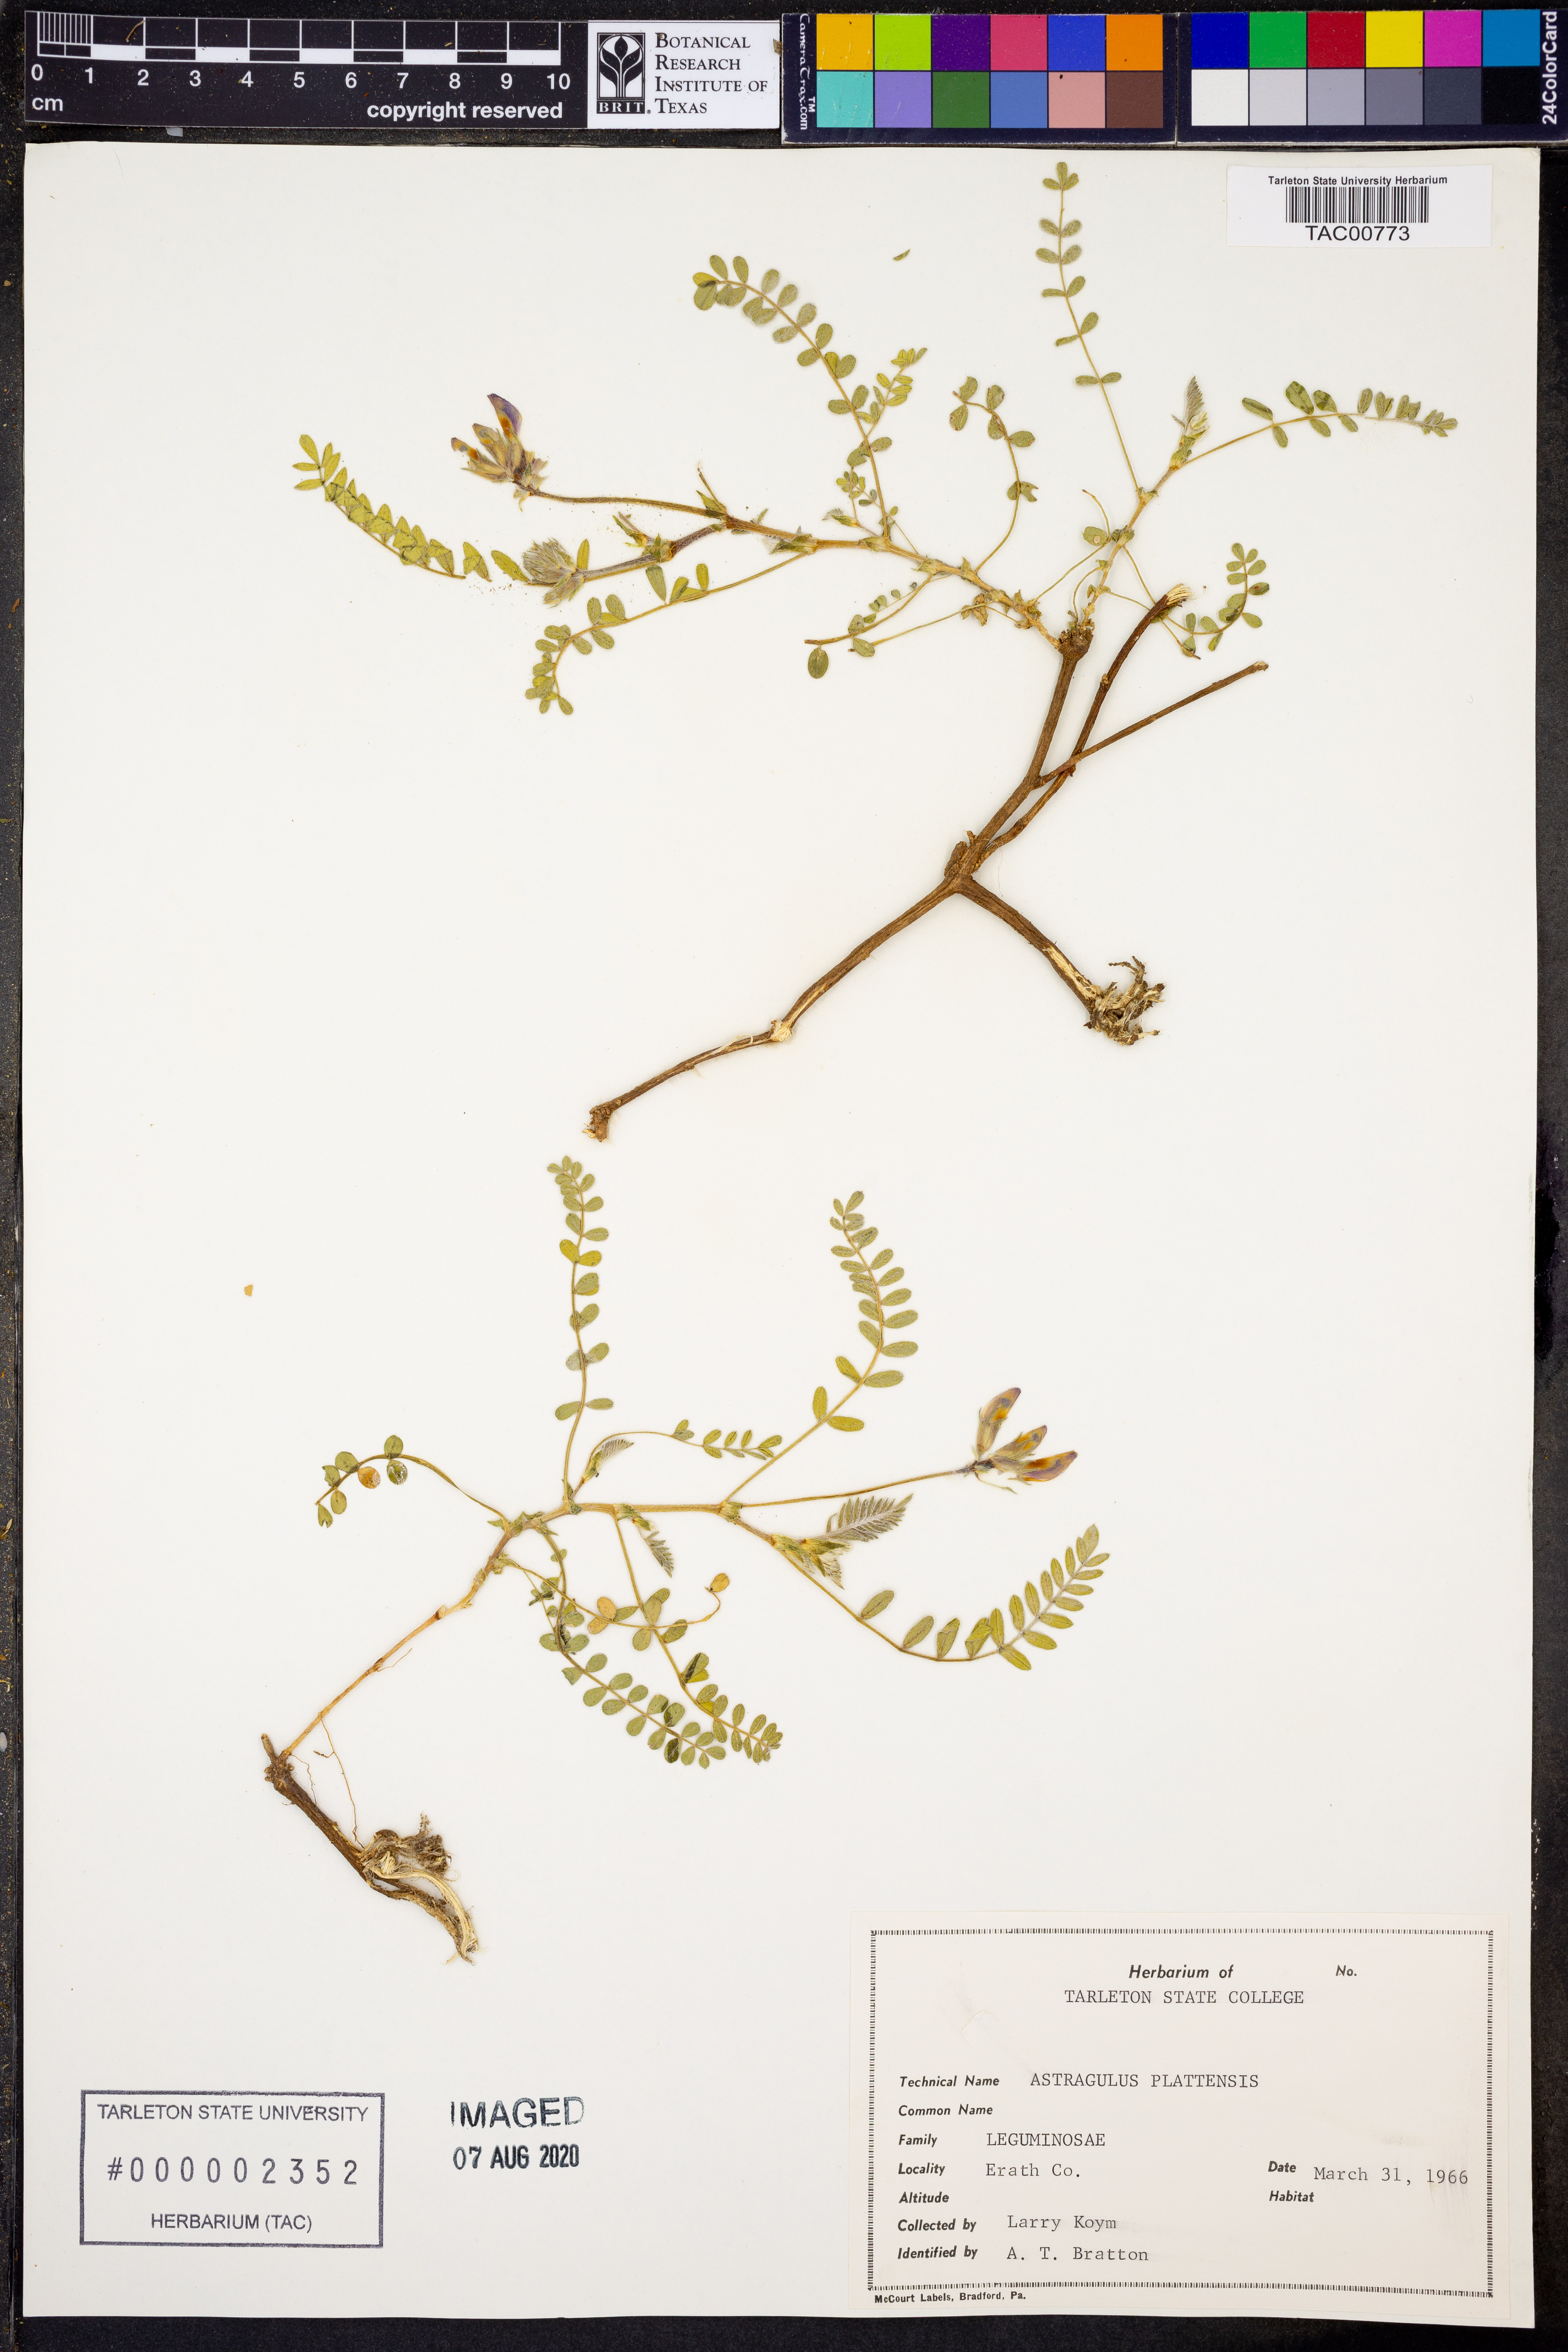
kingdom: Plantae
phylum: Tracheophyta
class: Magnoliopsida
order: Fabales
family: Fabaceae
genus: Astragalus
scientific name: Astragalus plattensis
